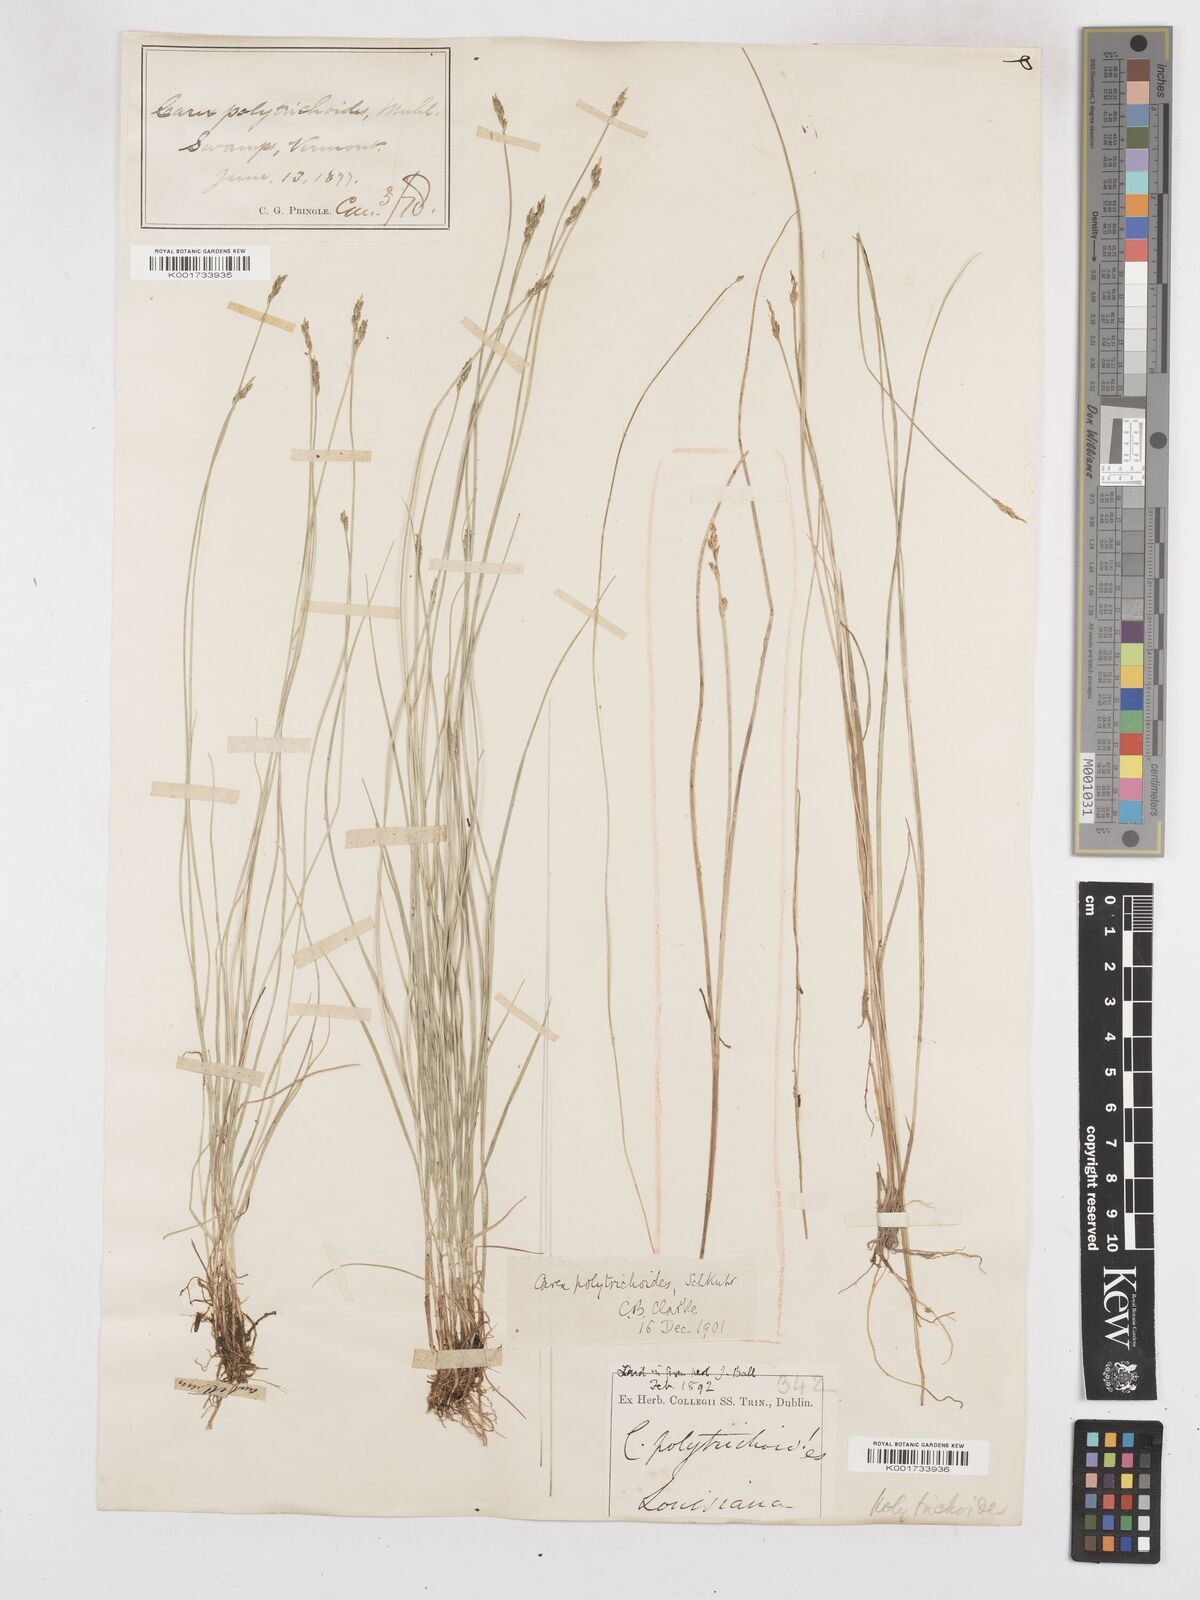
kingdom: Plantae
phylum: Tracheophyta
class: Liliopsida
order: Poales
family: Cyperaceae
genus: Carex
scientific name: Carex leptalea
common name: Bristly-stalked sedge
